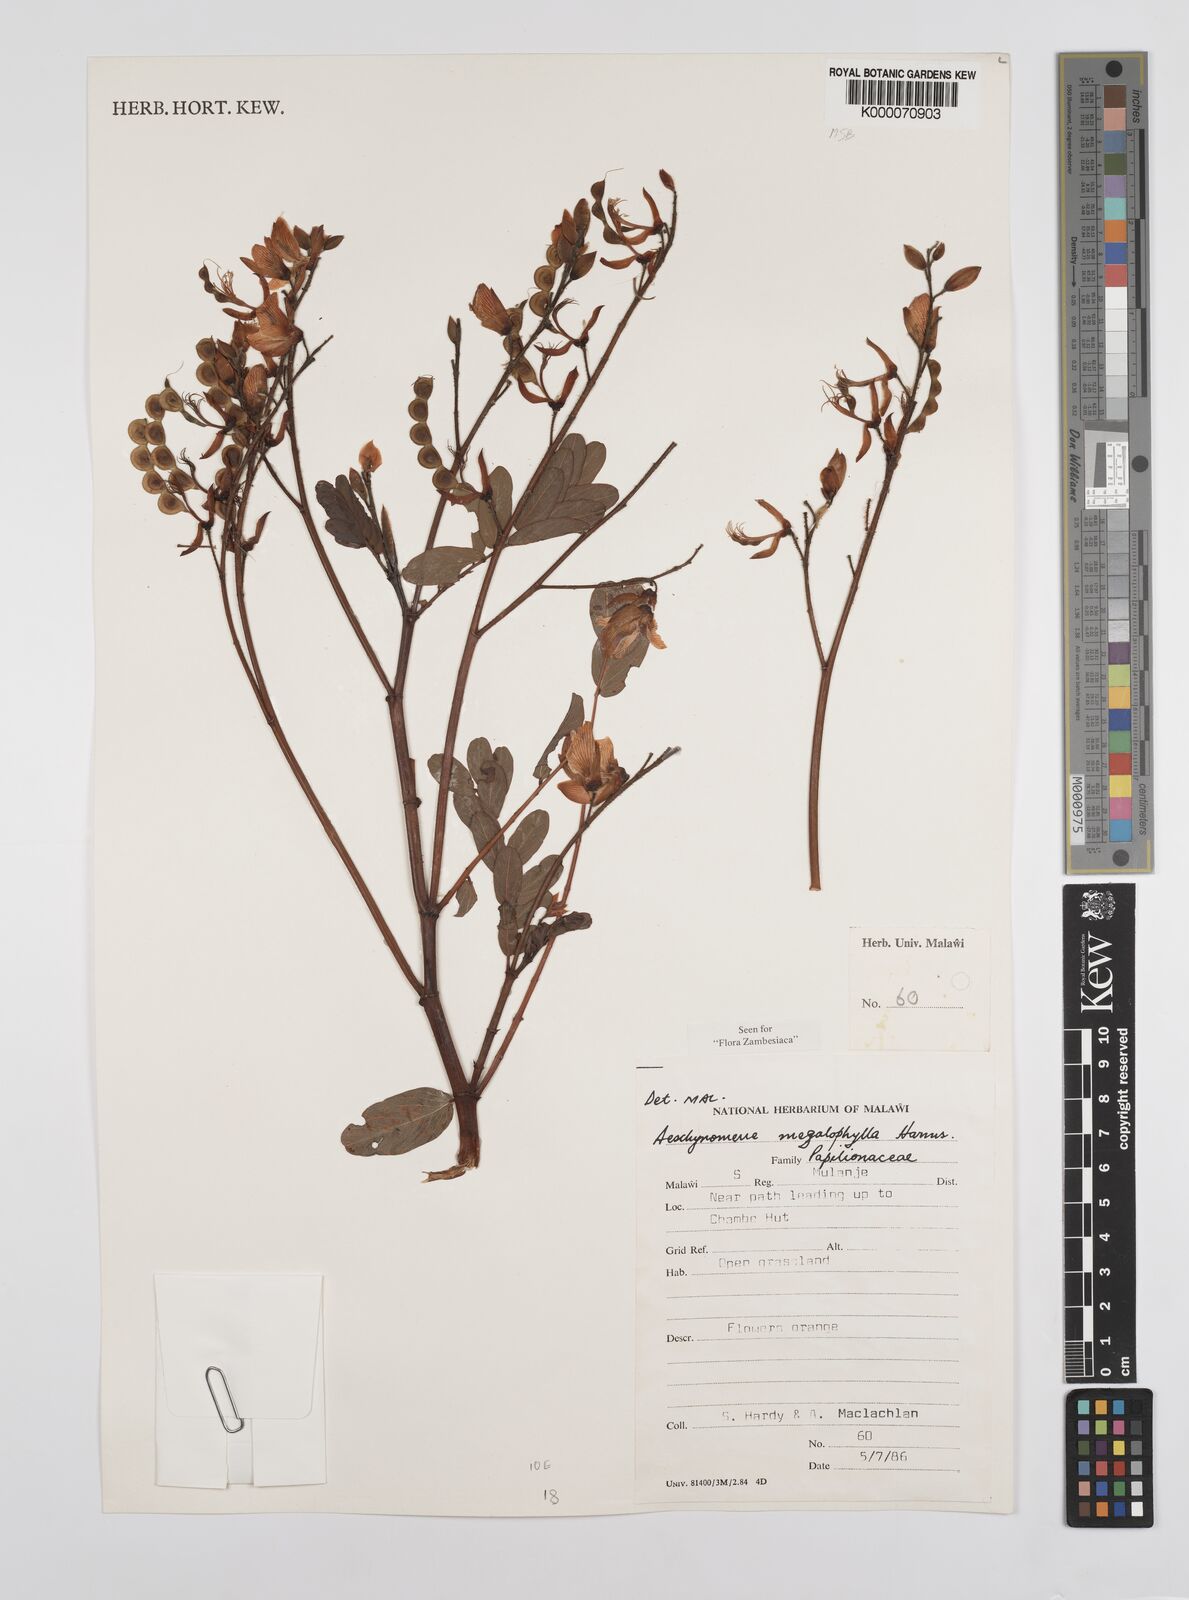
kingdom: Plantae
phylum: Tracheophyta
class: Magnoliopsida
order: Fabales
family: Fabaceae
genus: Aeschynomene
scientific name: Aeschynomene megalophylla
